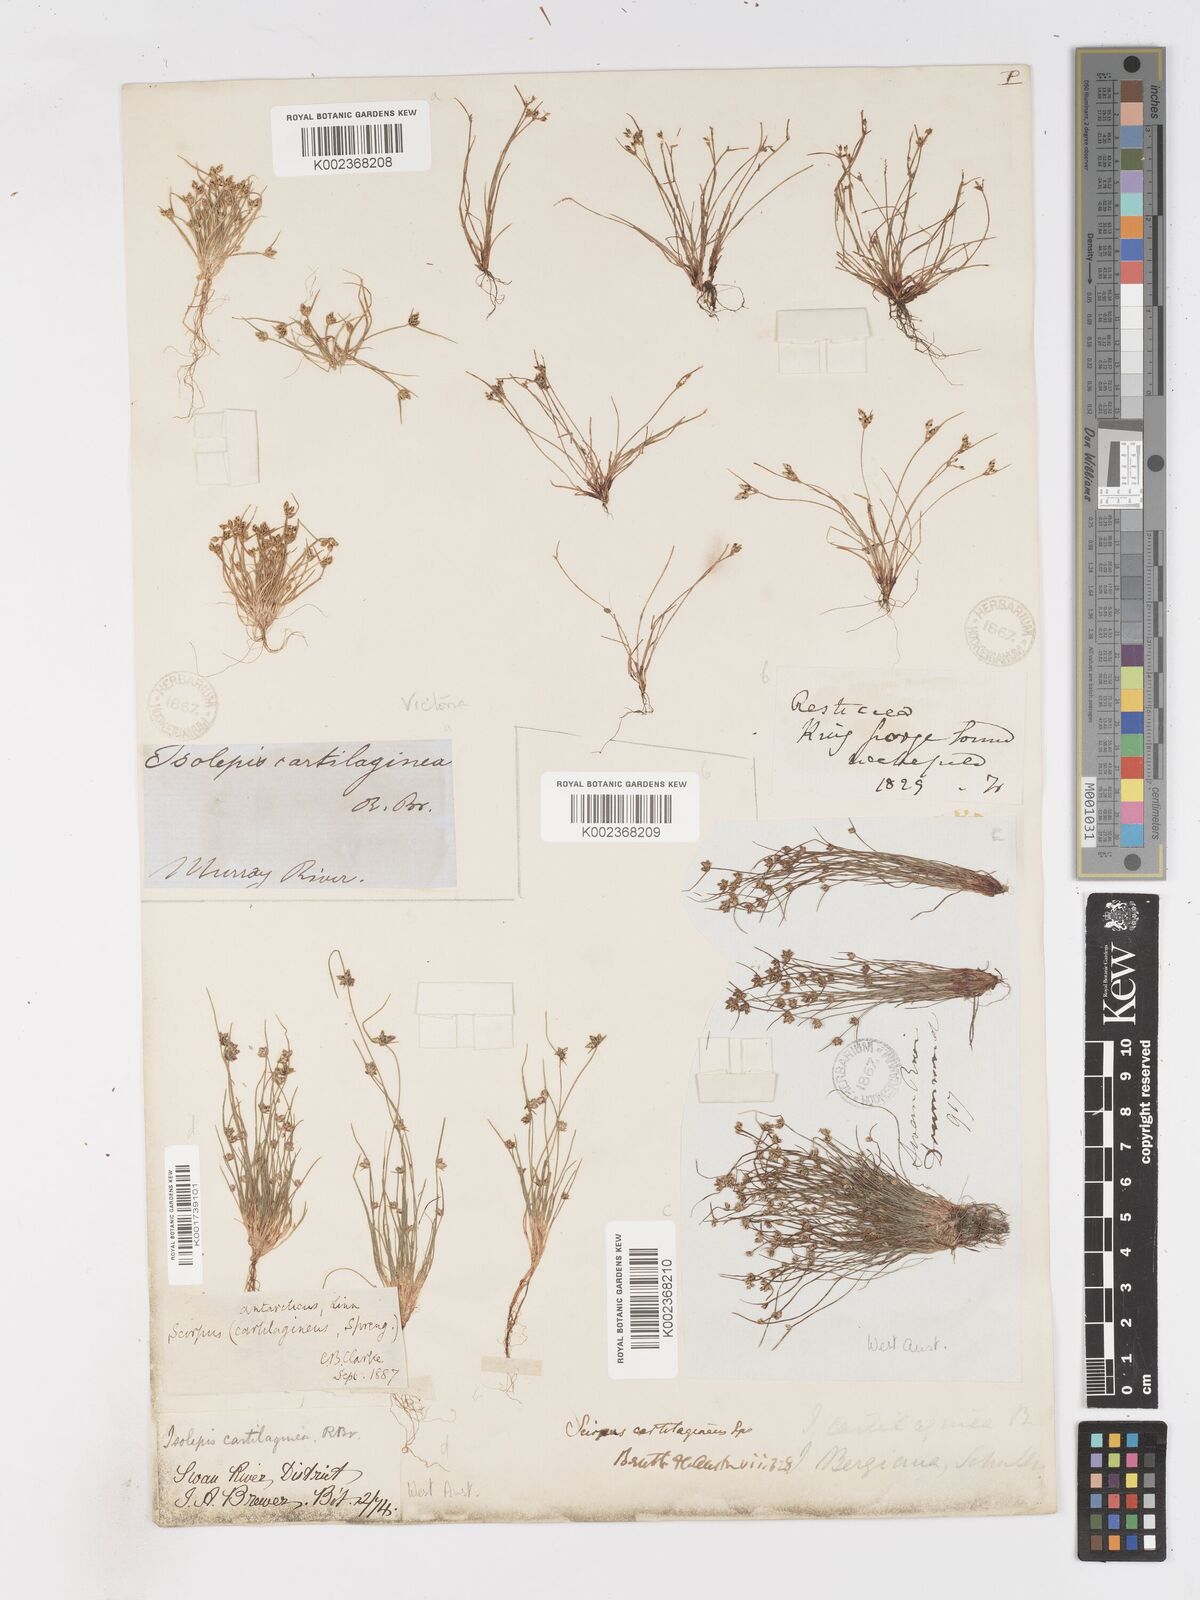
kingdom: Plantae
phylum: Tracheophyta
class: Liliopsida
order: Poales
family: Cyperaceae
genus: Isolepis
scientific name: Isolepis marginata
